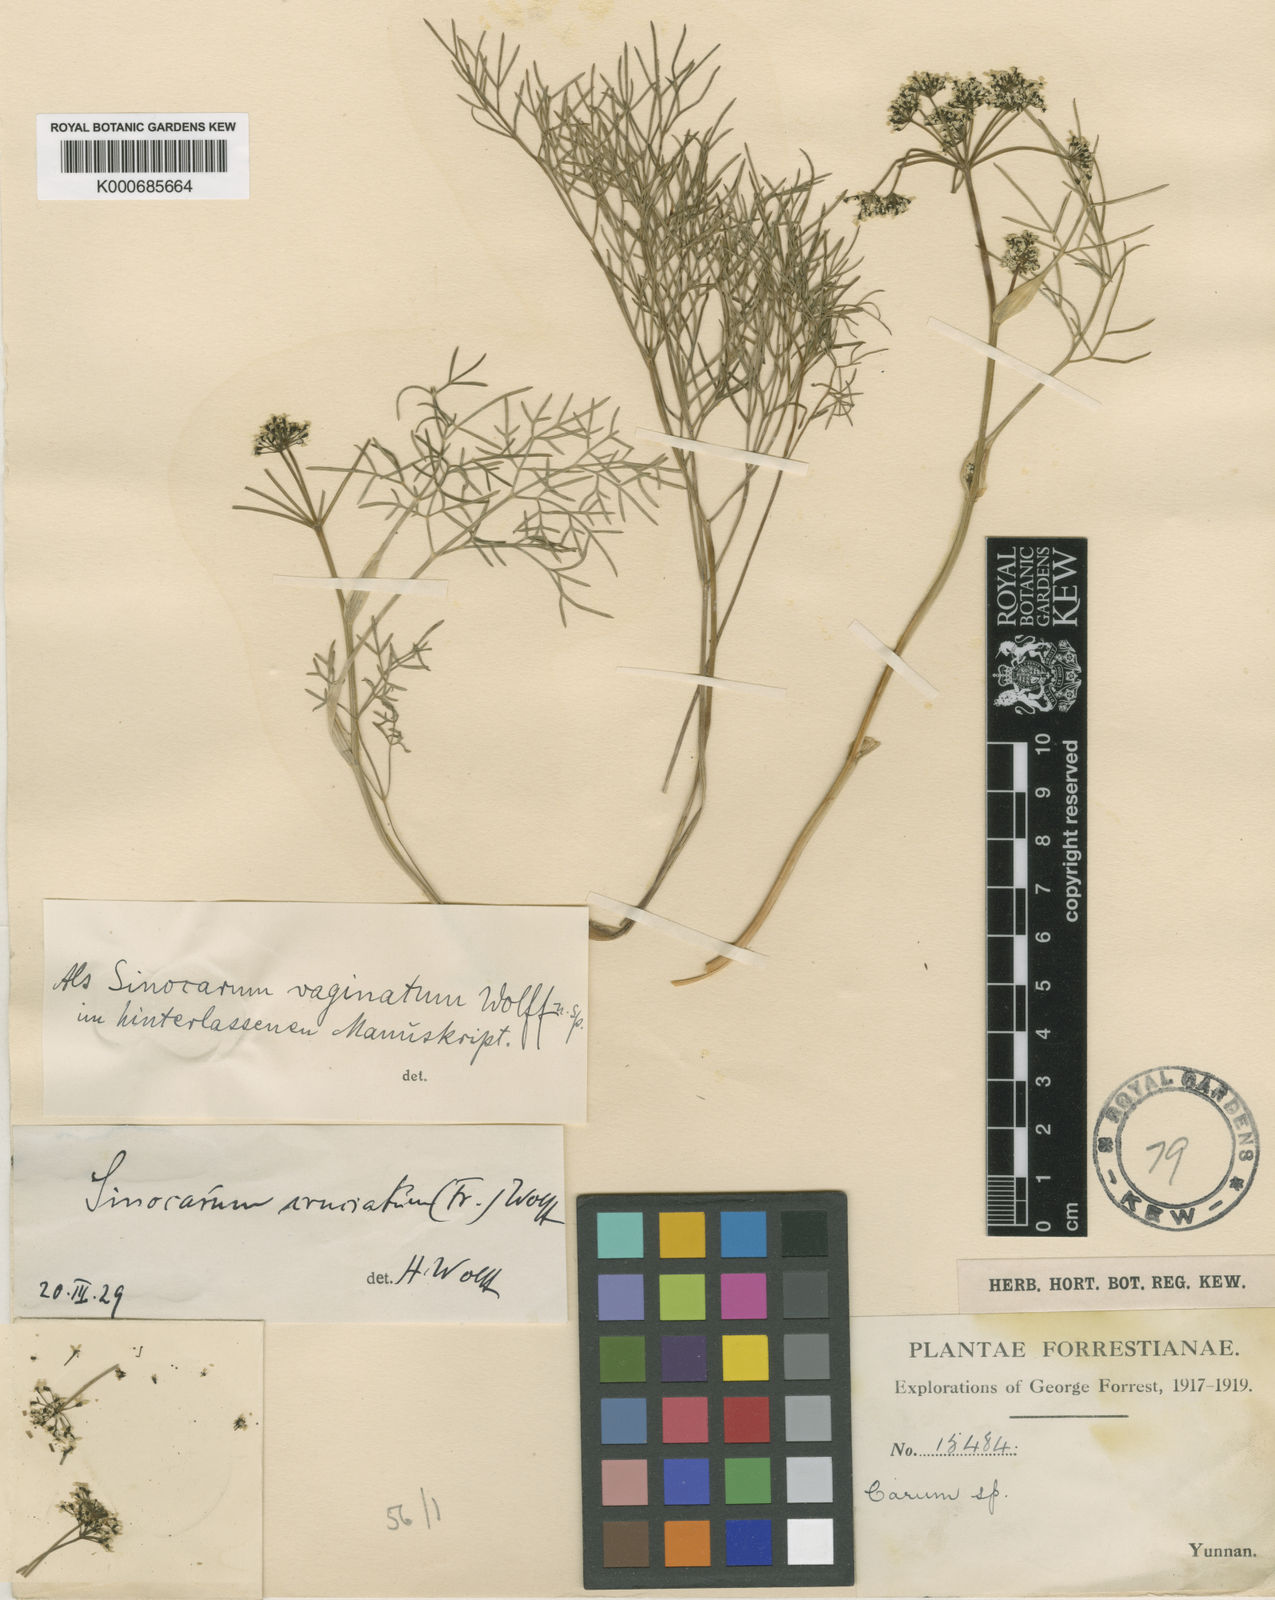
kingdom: Plantae
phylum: Tracheophyta
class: Magnoliopsida
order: Apiales
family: Apiaceae
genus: Sinocarum
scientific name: Sinocarum vaginatum
